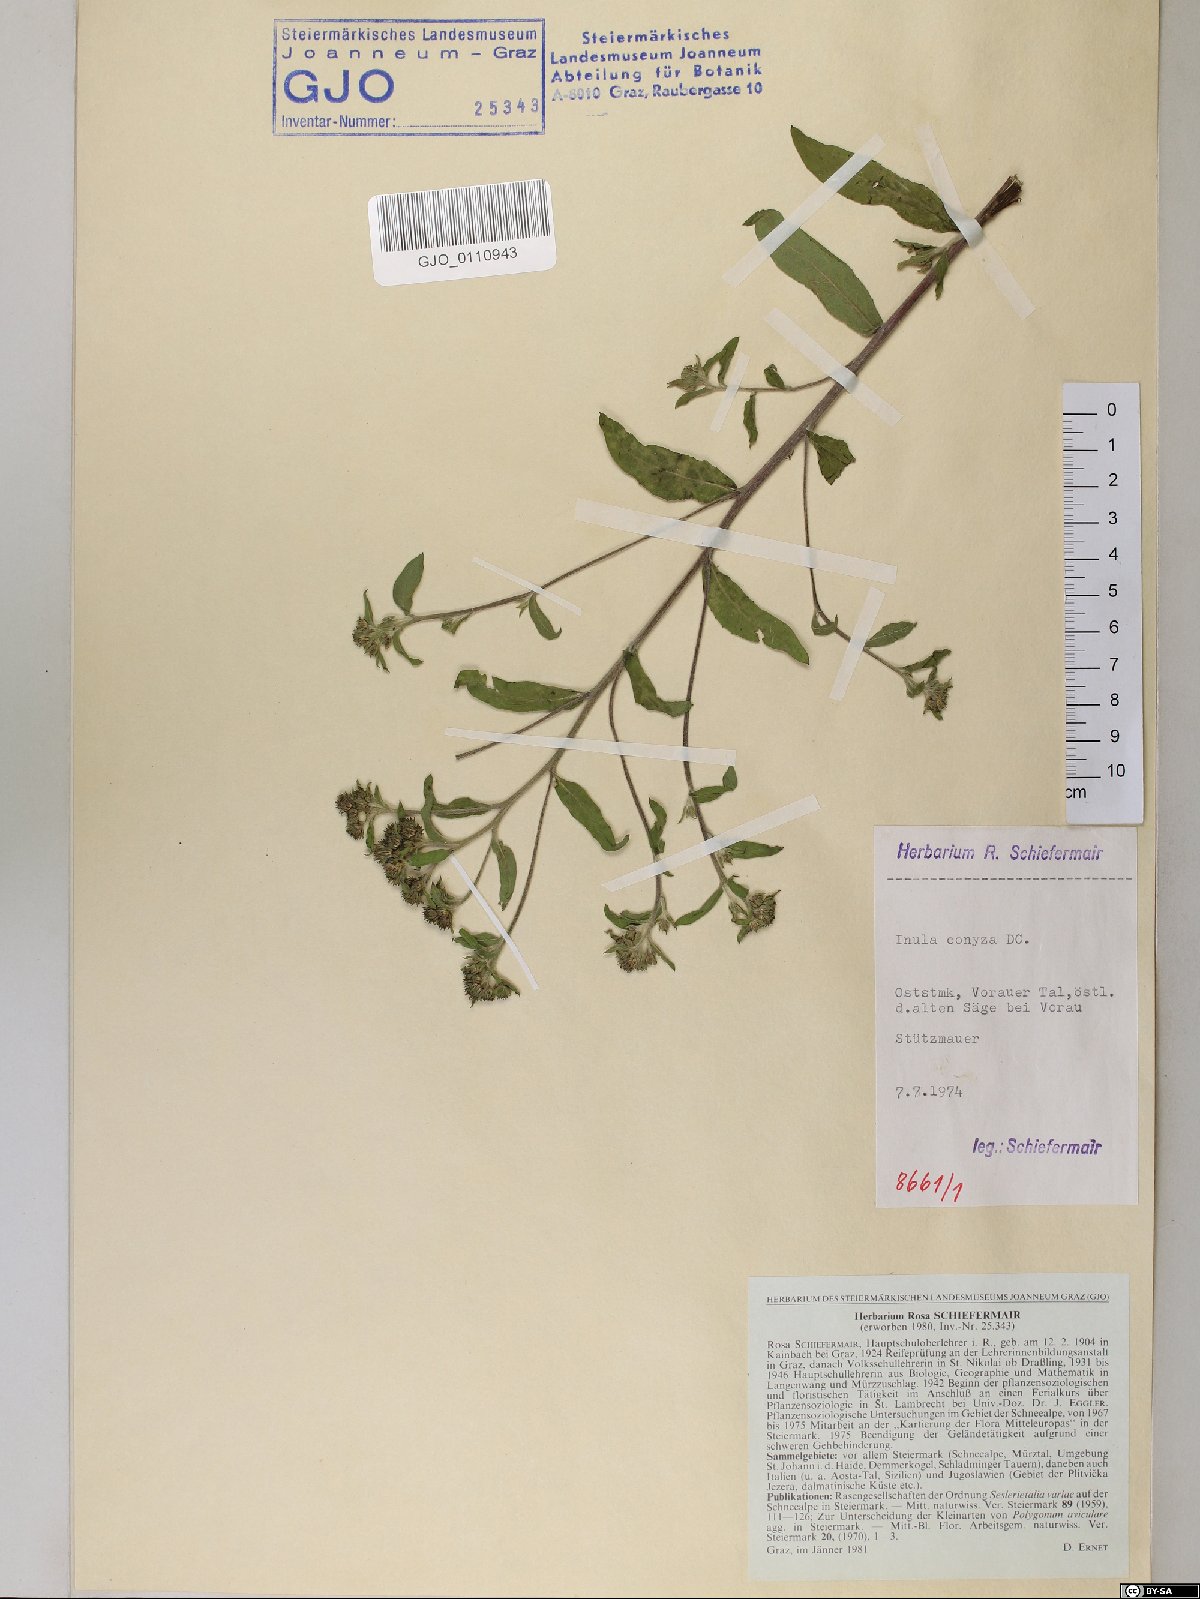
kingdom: Plantae
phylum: Tracheophyta
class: Magnoliopsida
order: Asterales
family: Asteraceae
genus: Pentanema
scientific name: Pentanema squarrosum
